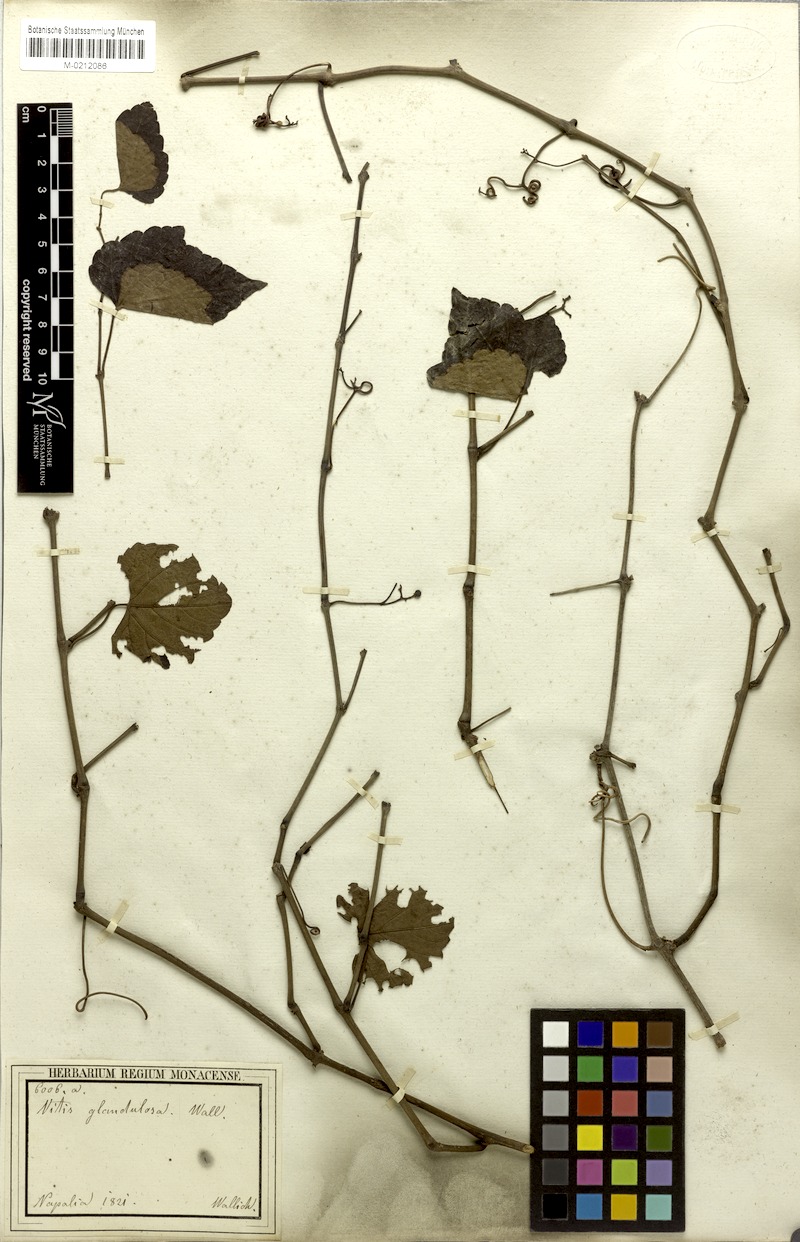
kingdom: Plantae
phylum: Tracheophyta
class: Magnoliopsida
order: Vitales
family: Vitaceae
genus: Parthenocissus
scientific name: Parthenocissus semicordata
